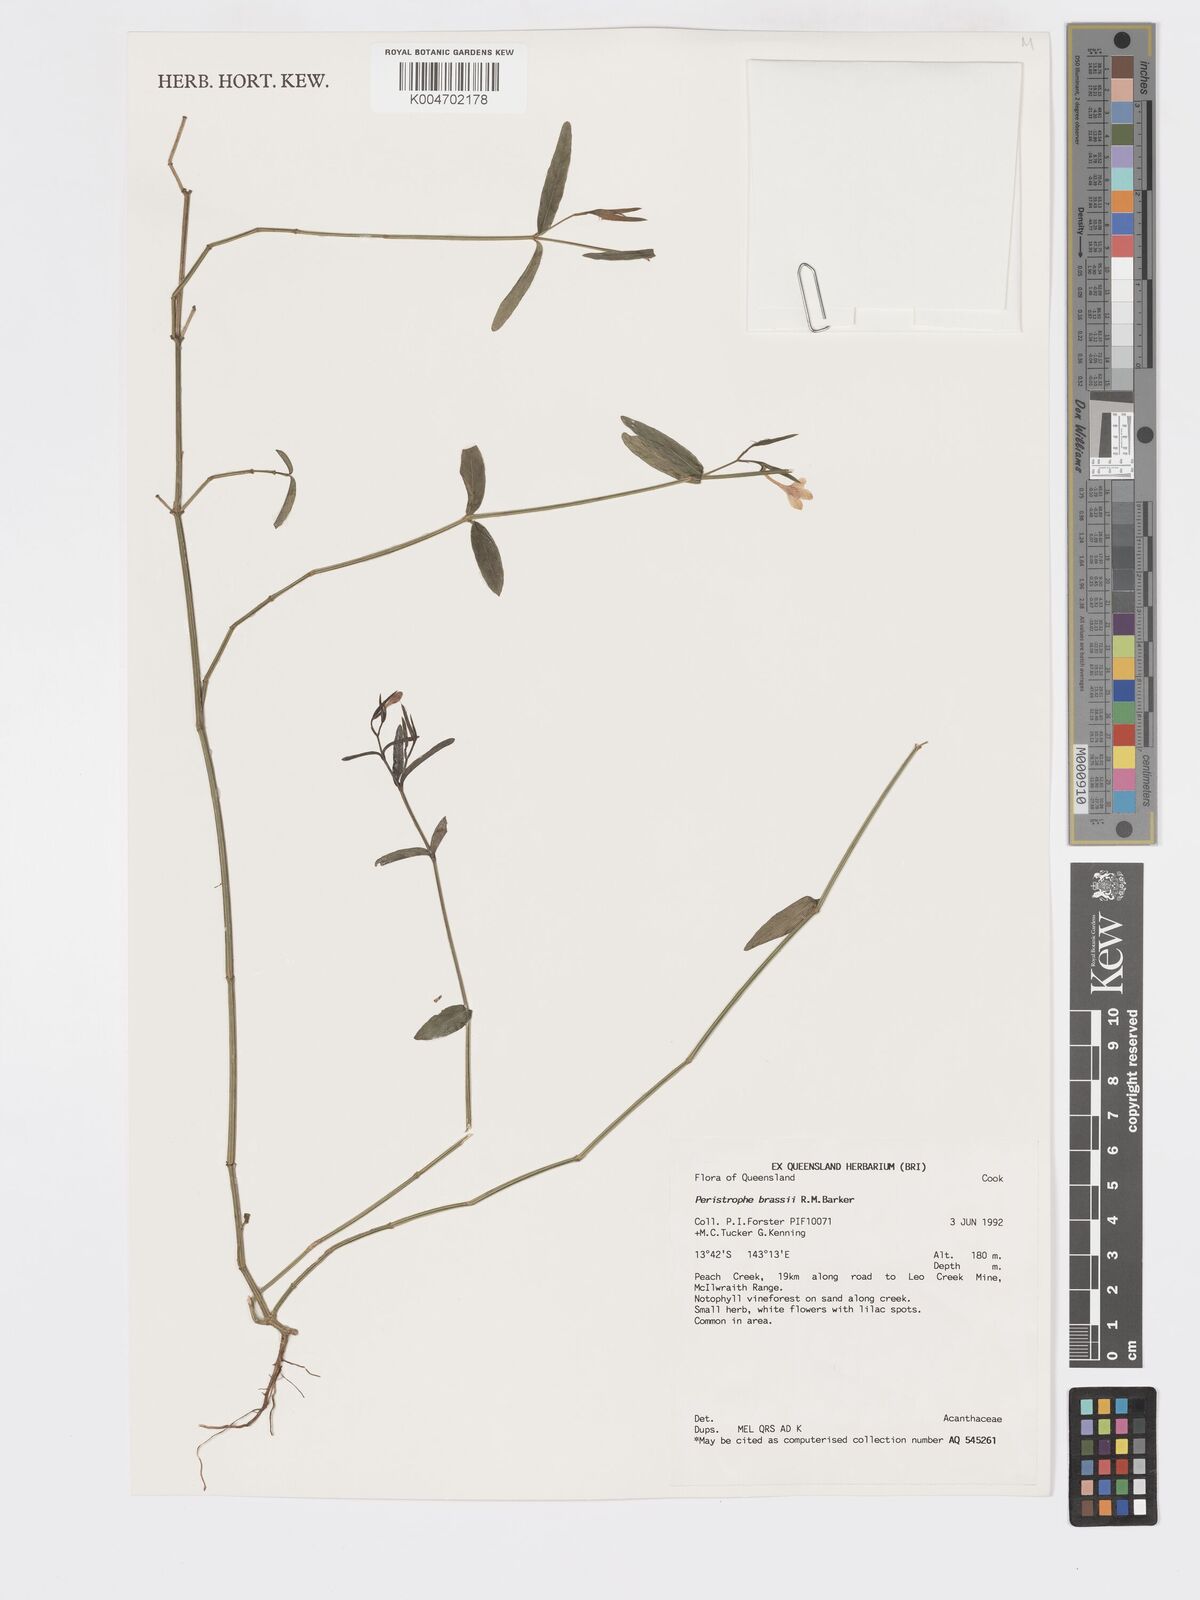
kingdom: Plantae
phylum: Tracheophyta
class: Magnoliopsida
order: Lamiales
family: Acanthaceae
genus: Dicliptera
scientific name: Dicliptera extenta
